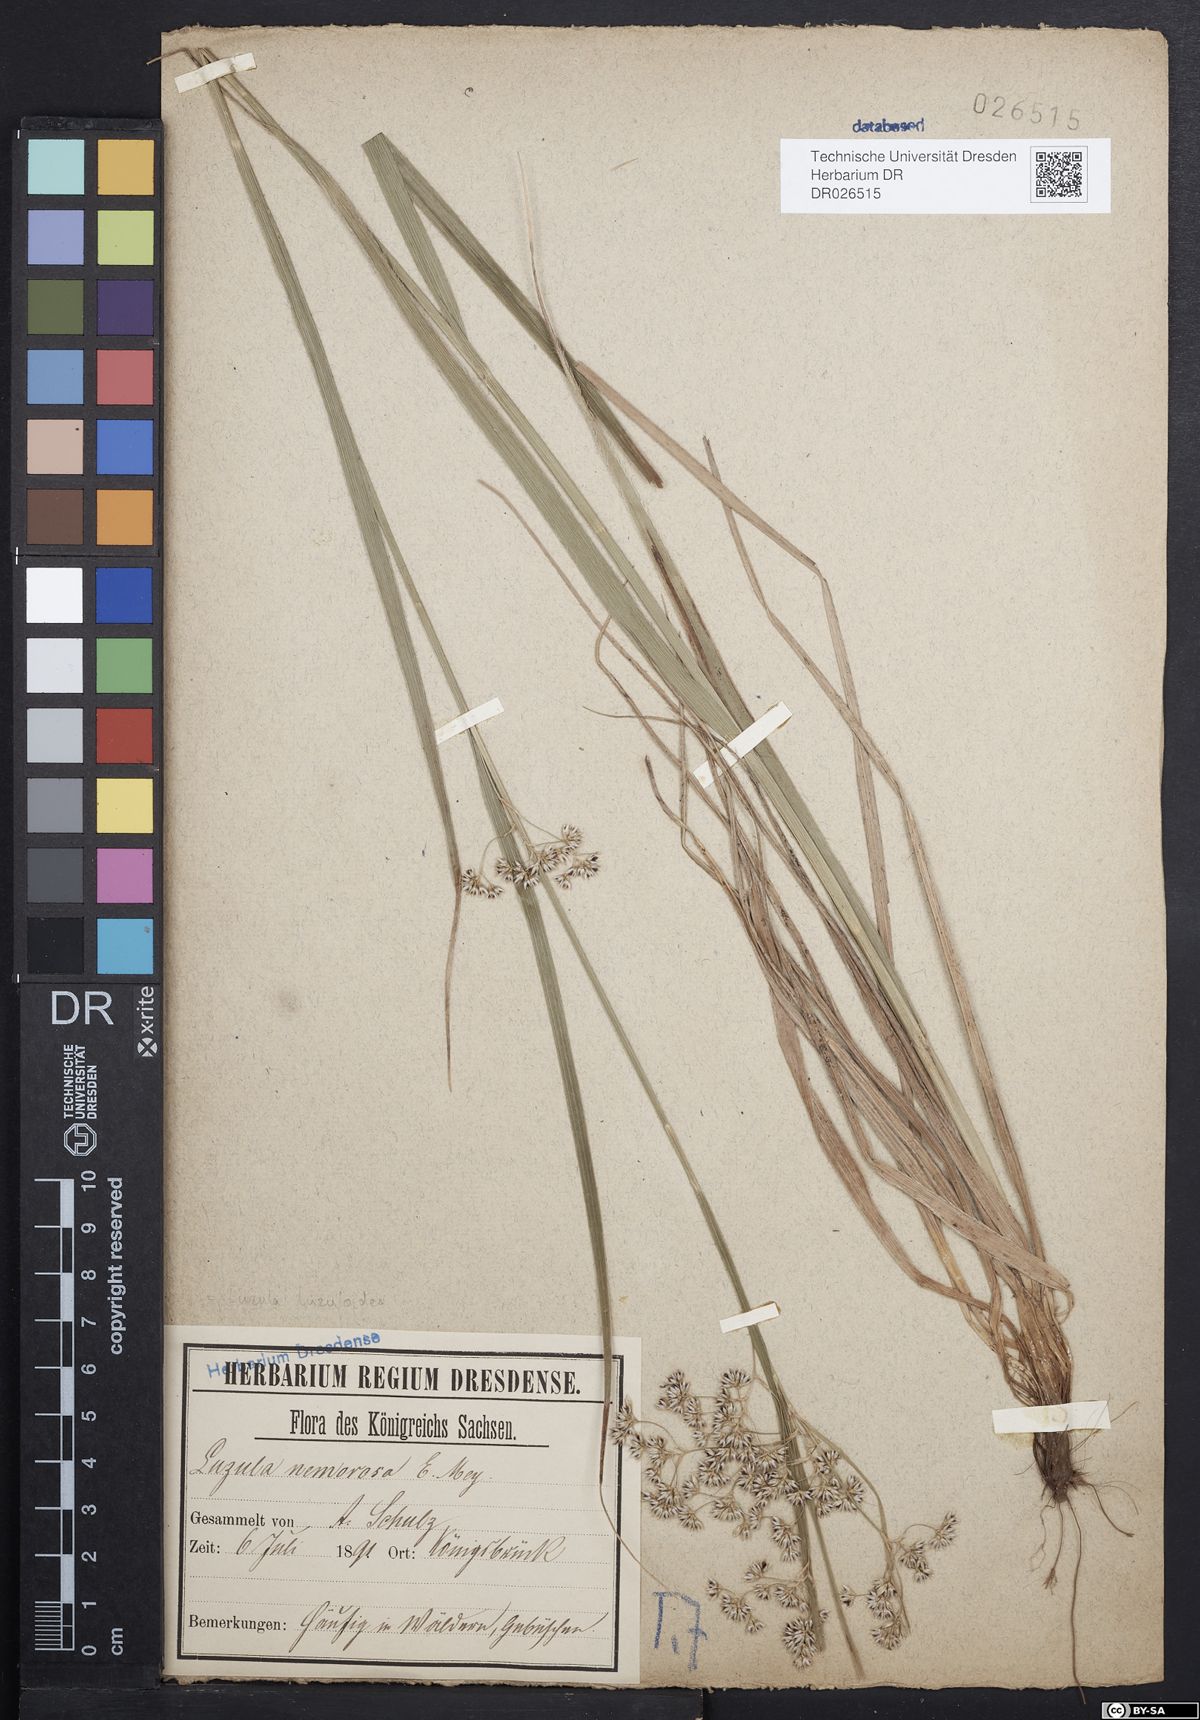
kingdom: Plantae
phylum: Tracheophyta
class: Liliopsida
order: Poales
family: Juncaceae
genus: Luzula
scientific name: Luzula luzuloides
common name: White wood-rush
